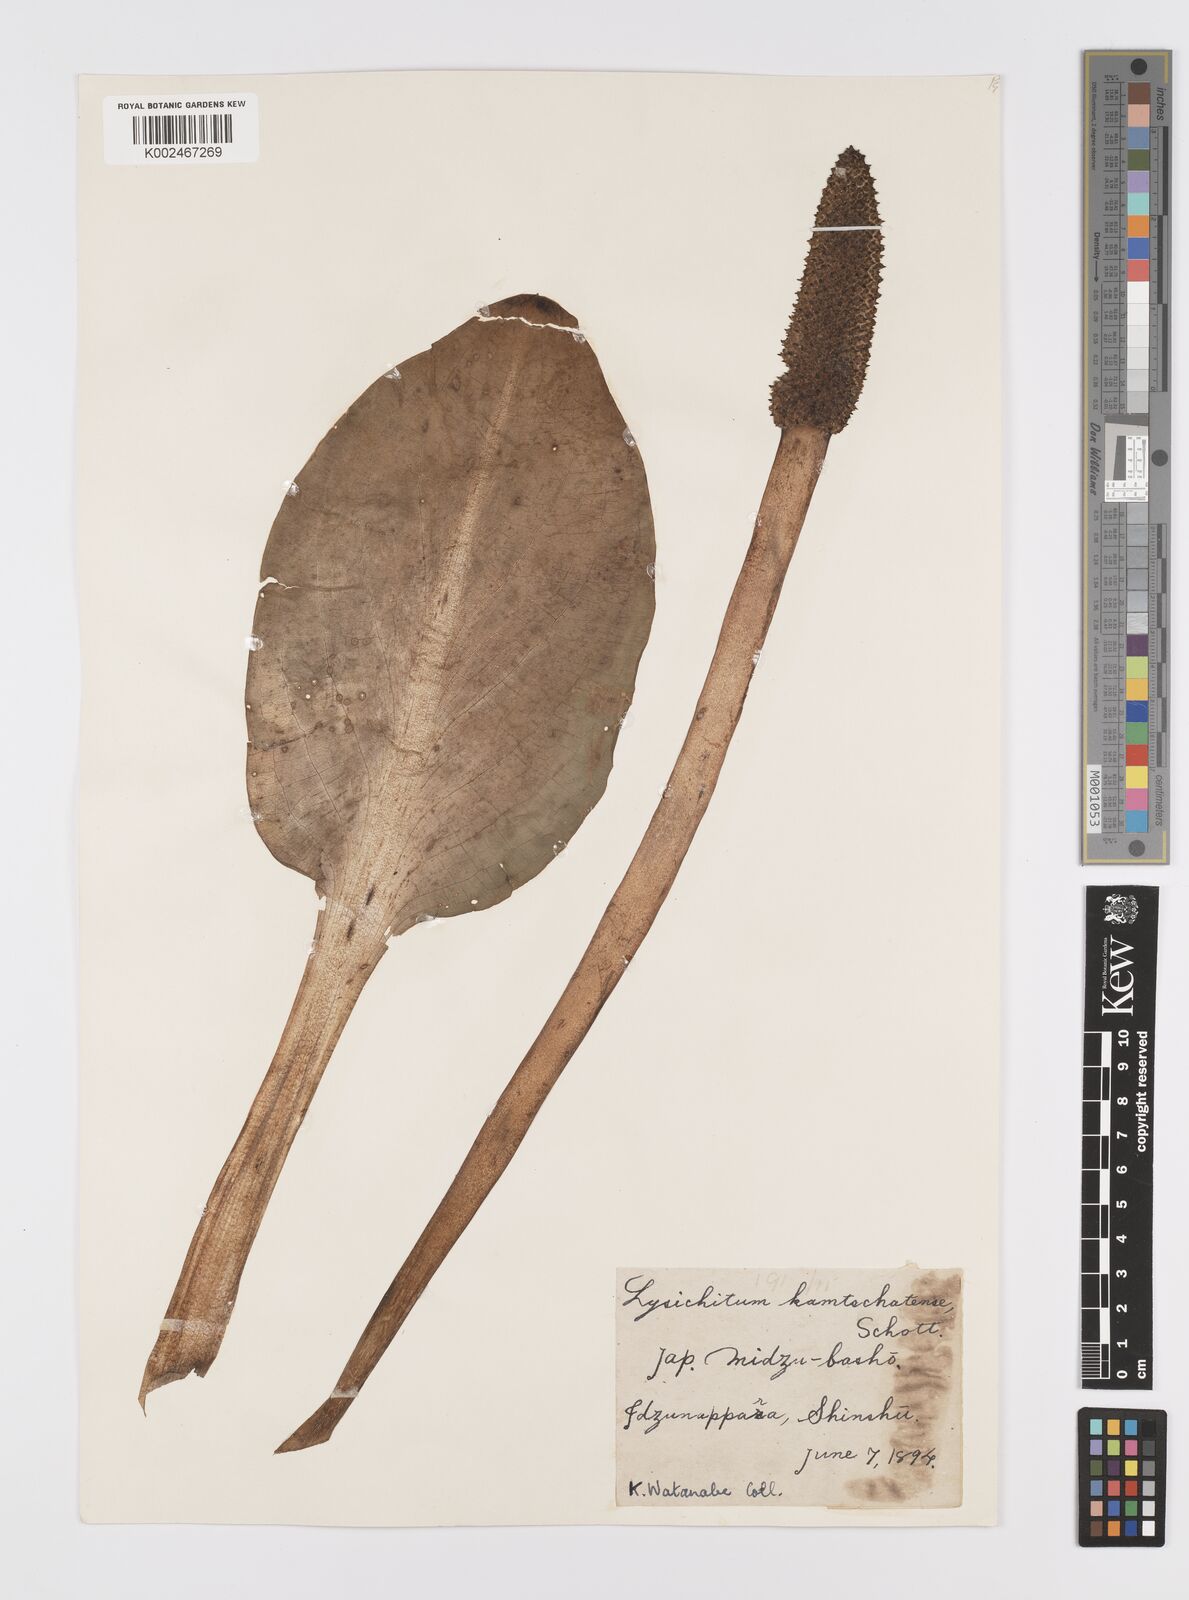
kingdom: Plantae
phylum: Tracheophyta
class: Liliopsida
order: Alismatales
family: Araceae
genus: Lysichiton
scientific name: Lysichiton camtschatcensis
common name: Asian skunk-cabbage
